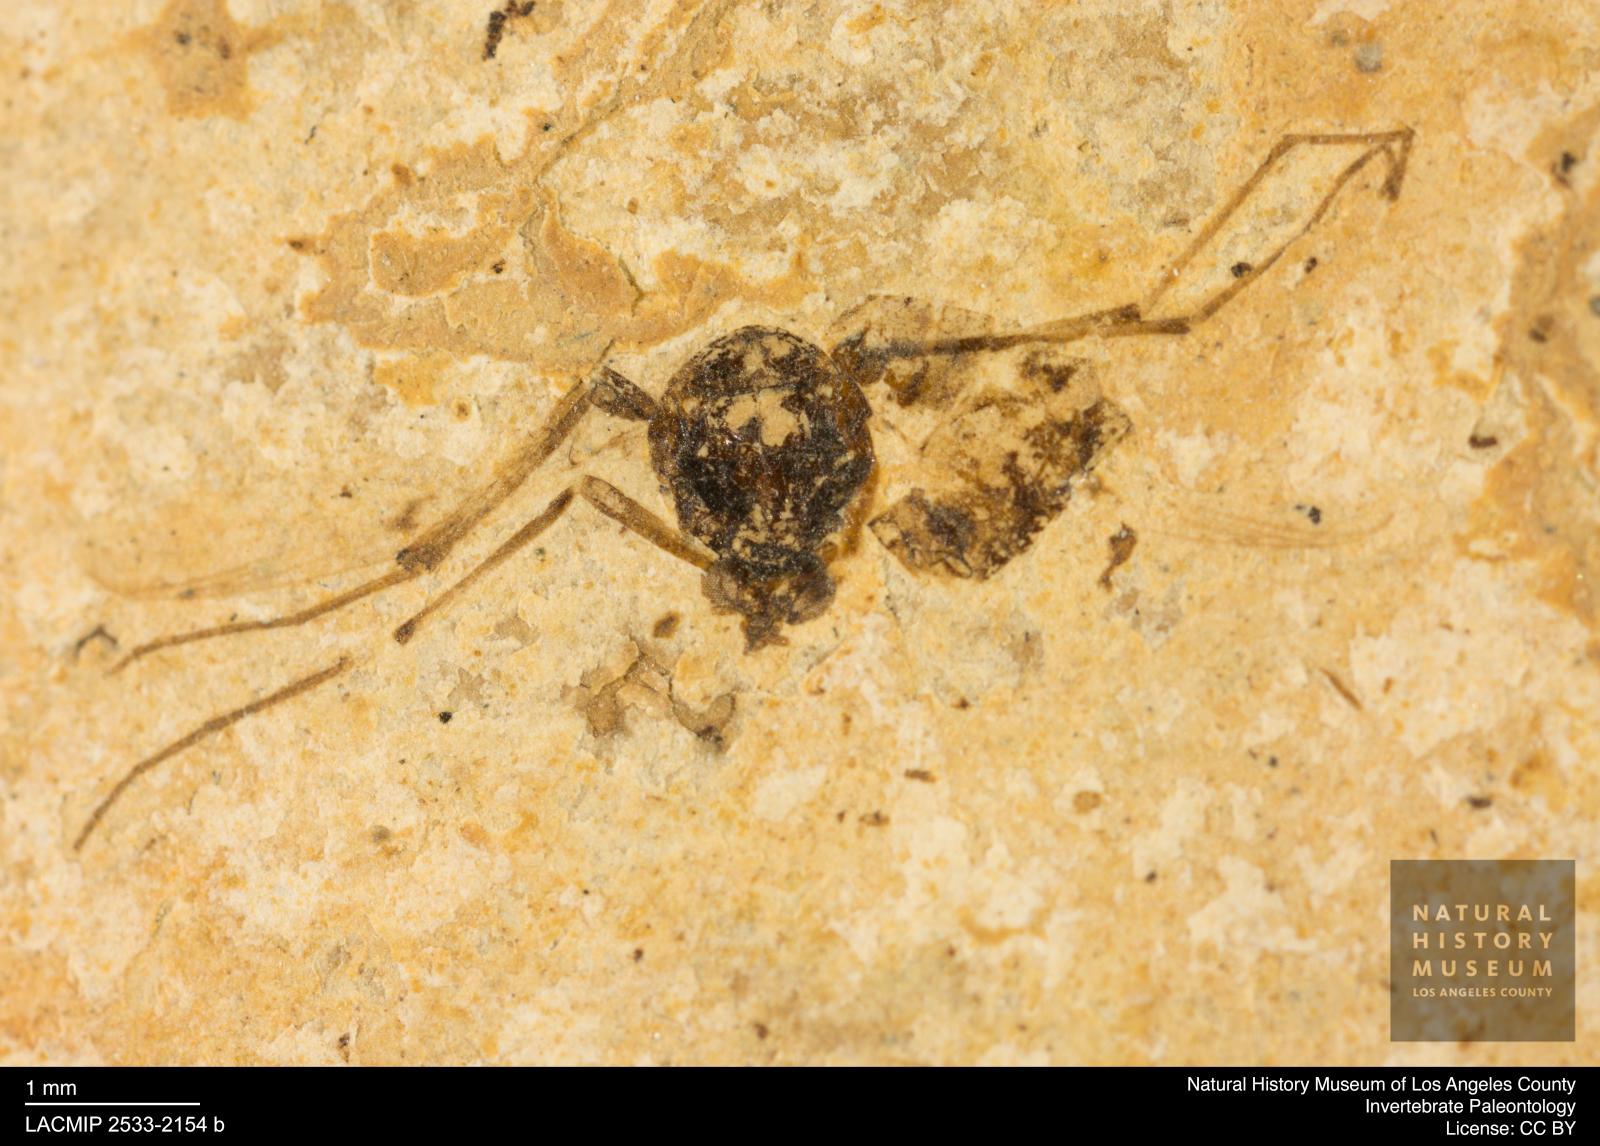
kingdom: Animalia
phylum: Arthropoda
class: Insecta
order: Diptera
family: Chironomidae
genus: Tanypus
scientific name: Tanypus dorminans
